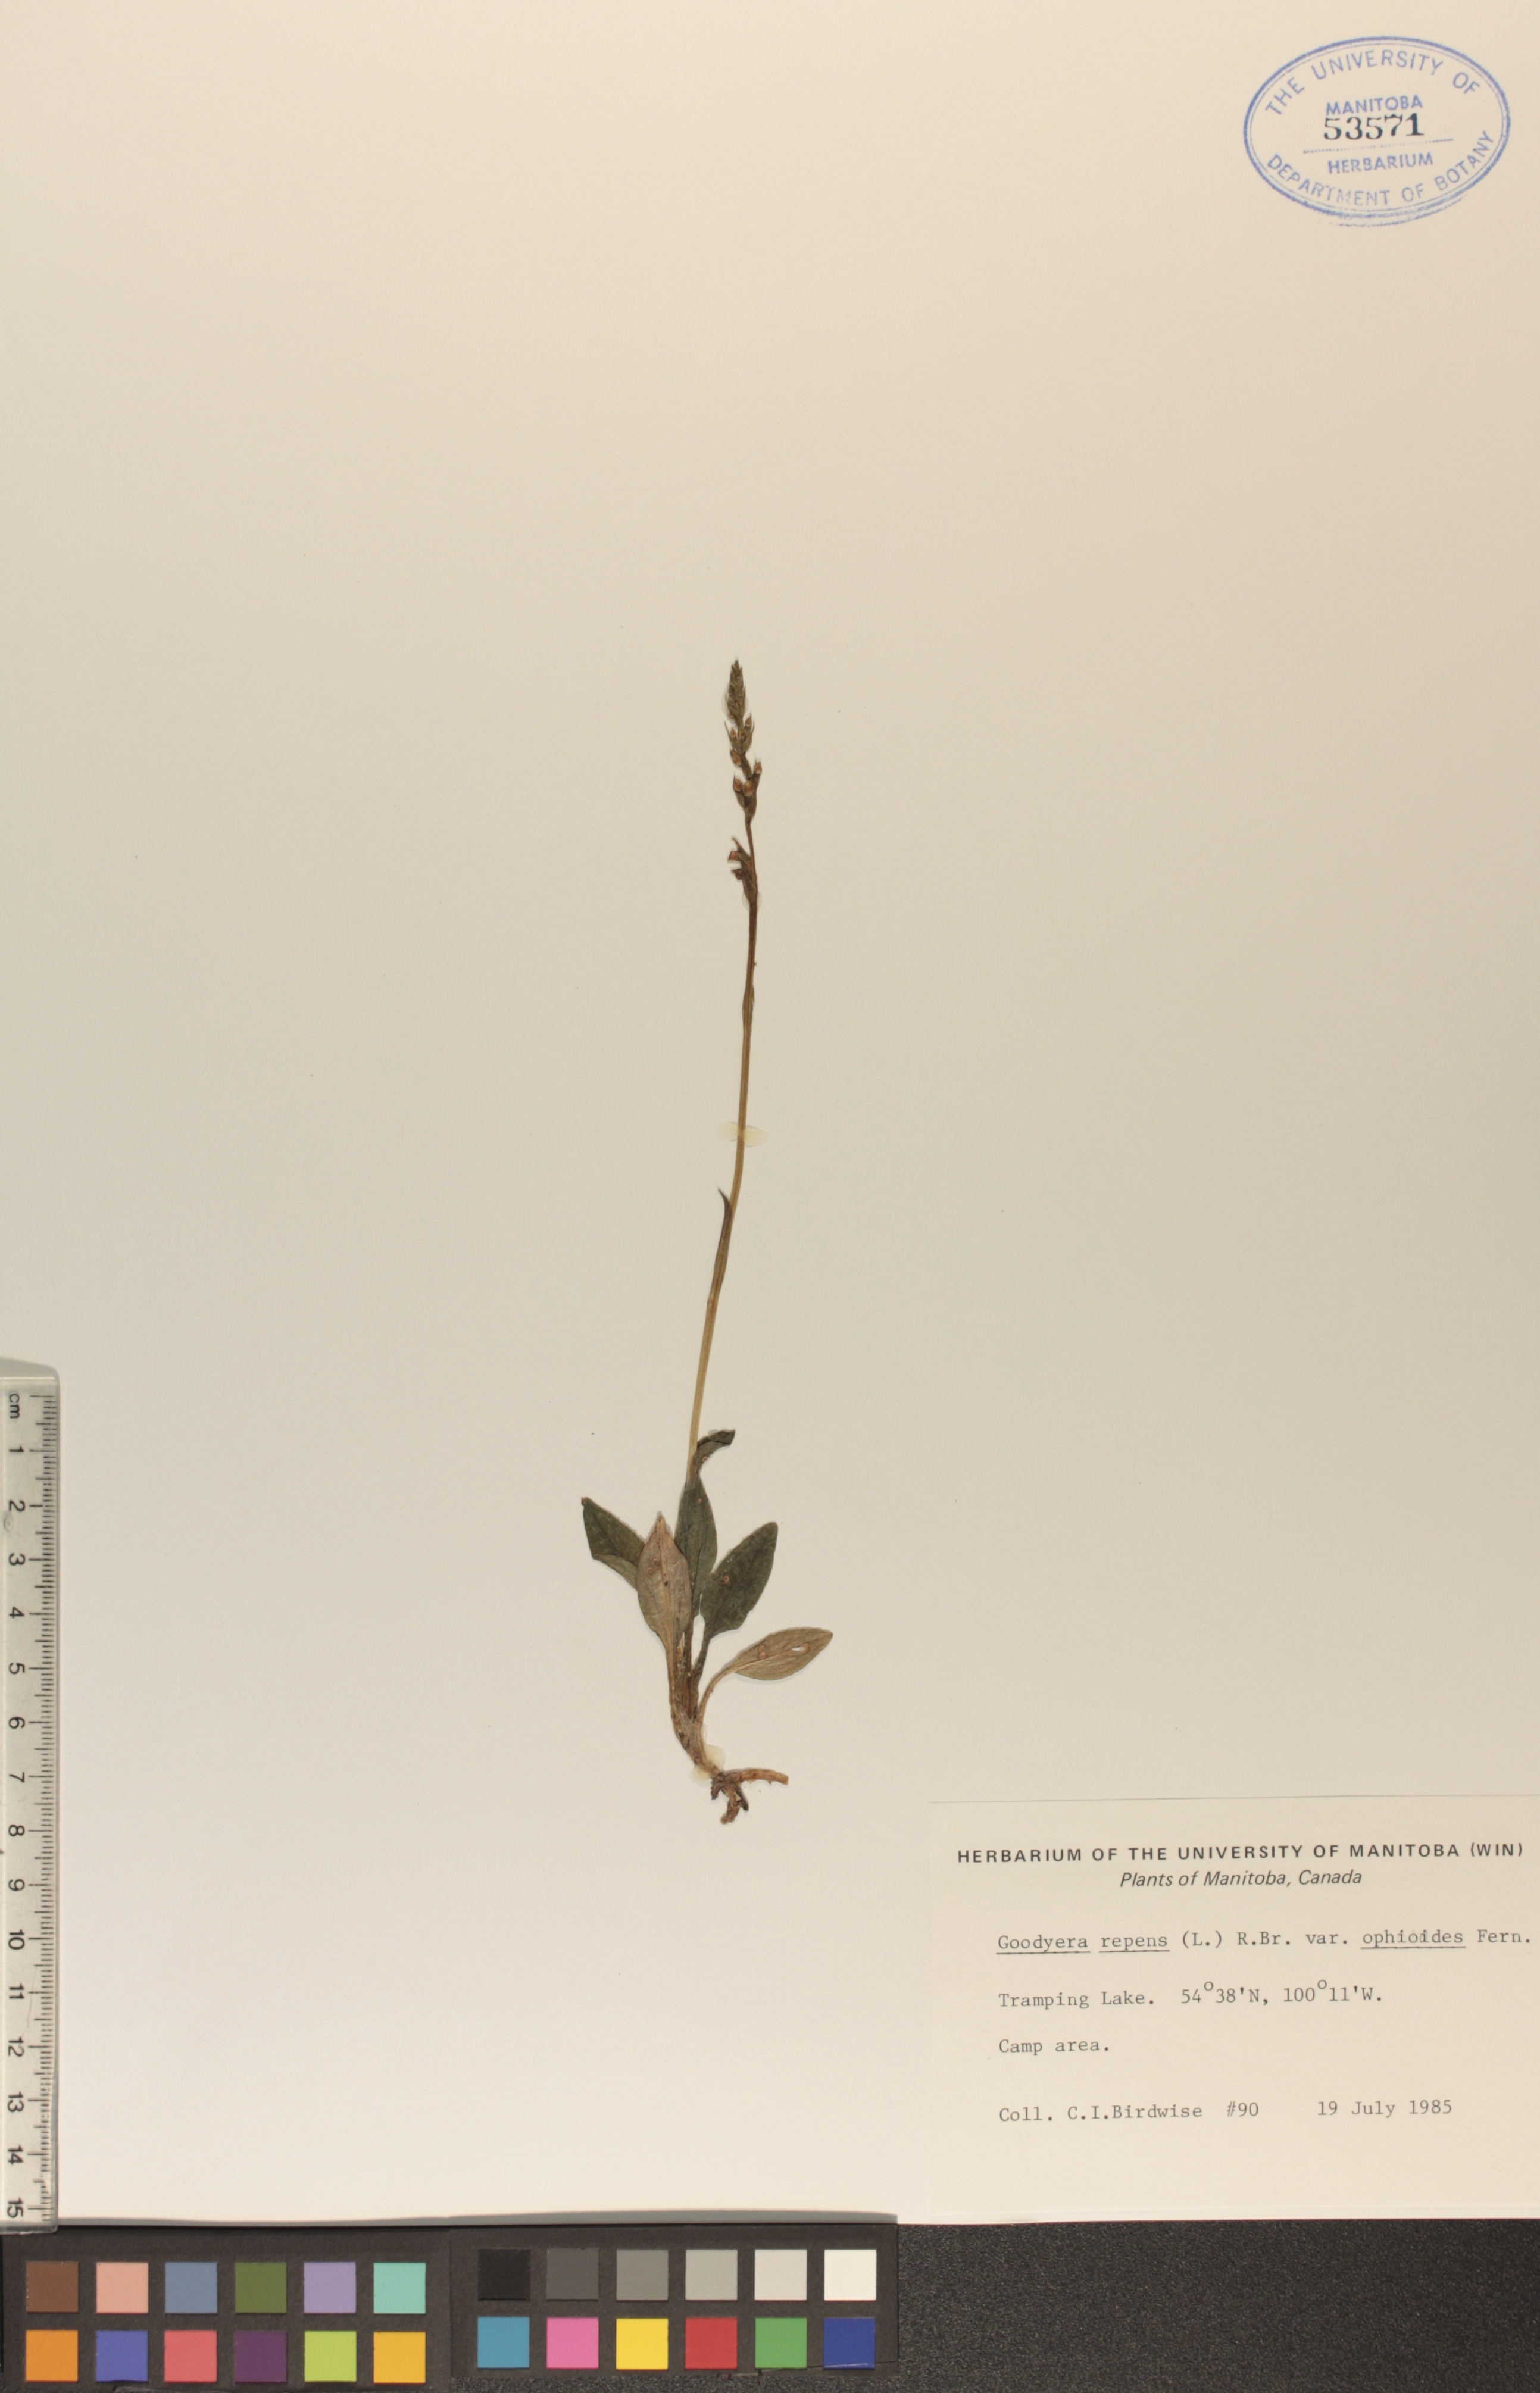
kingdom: Plantae
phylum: Tracheophyta
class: Liliopsida
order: Asparagales
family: Orchidaceae
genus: Goodyera
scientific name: Goodyera repens
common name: Creeping lady's-tresses
